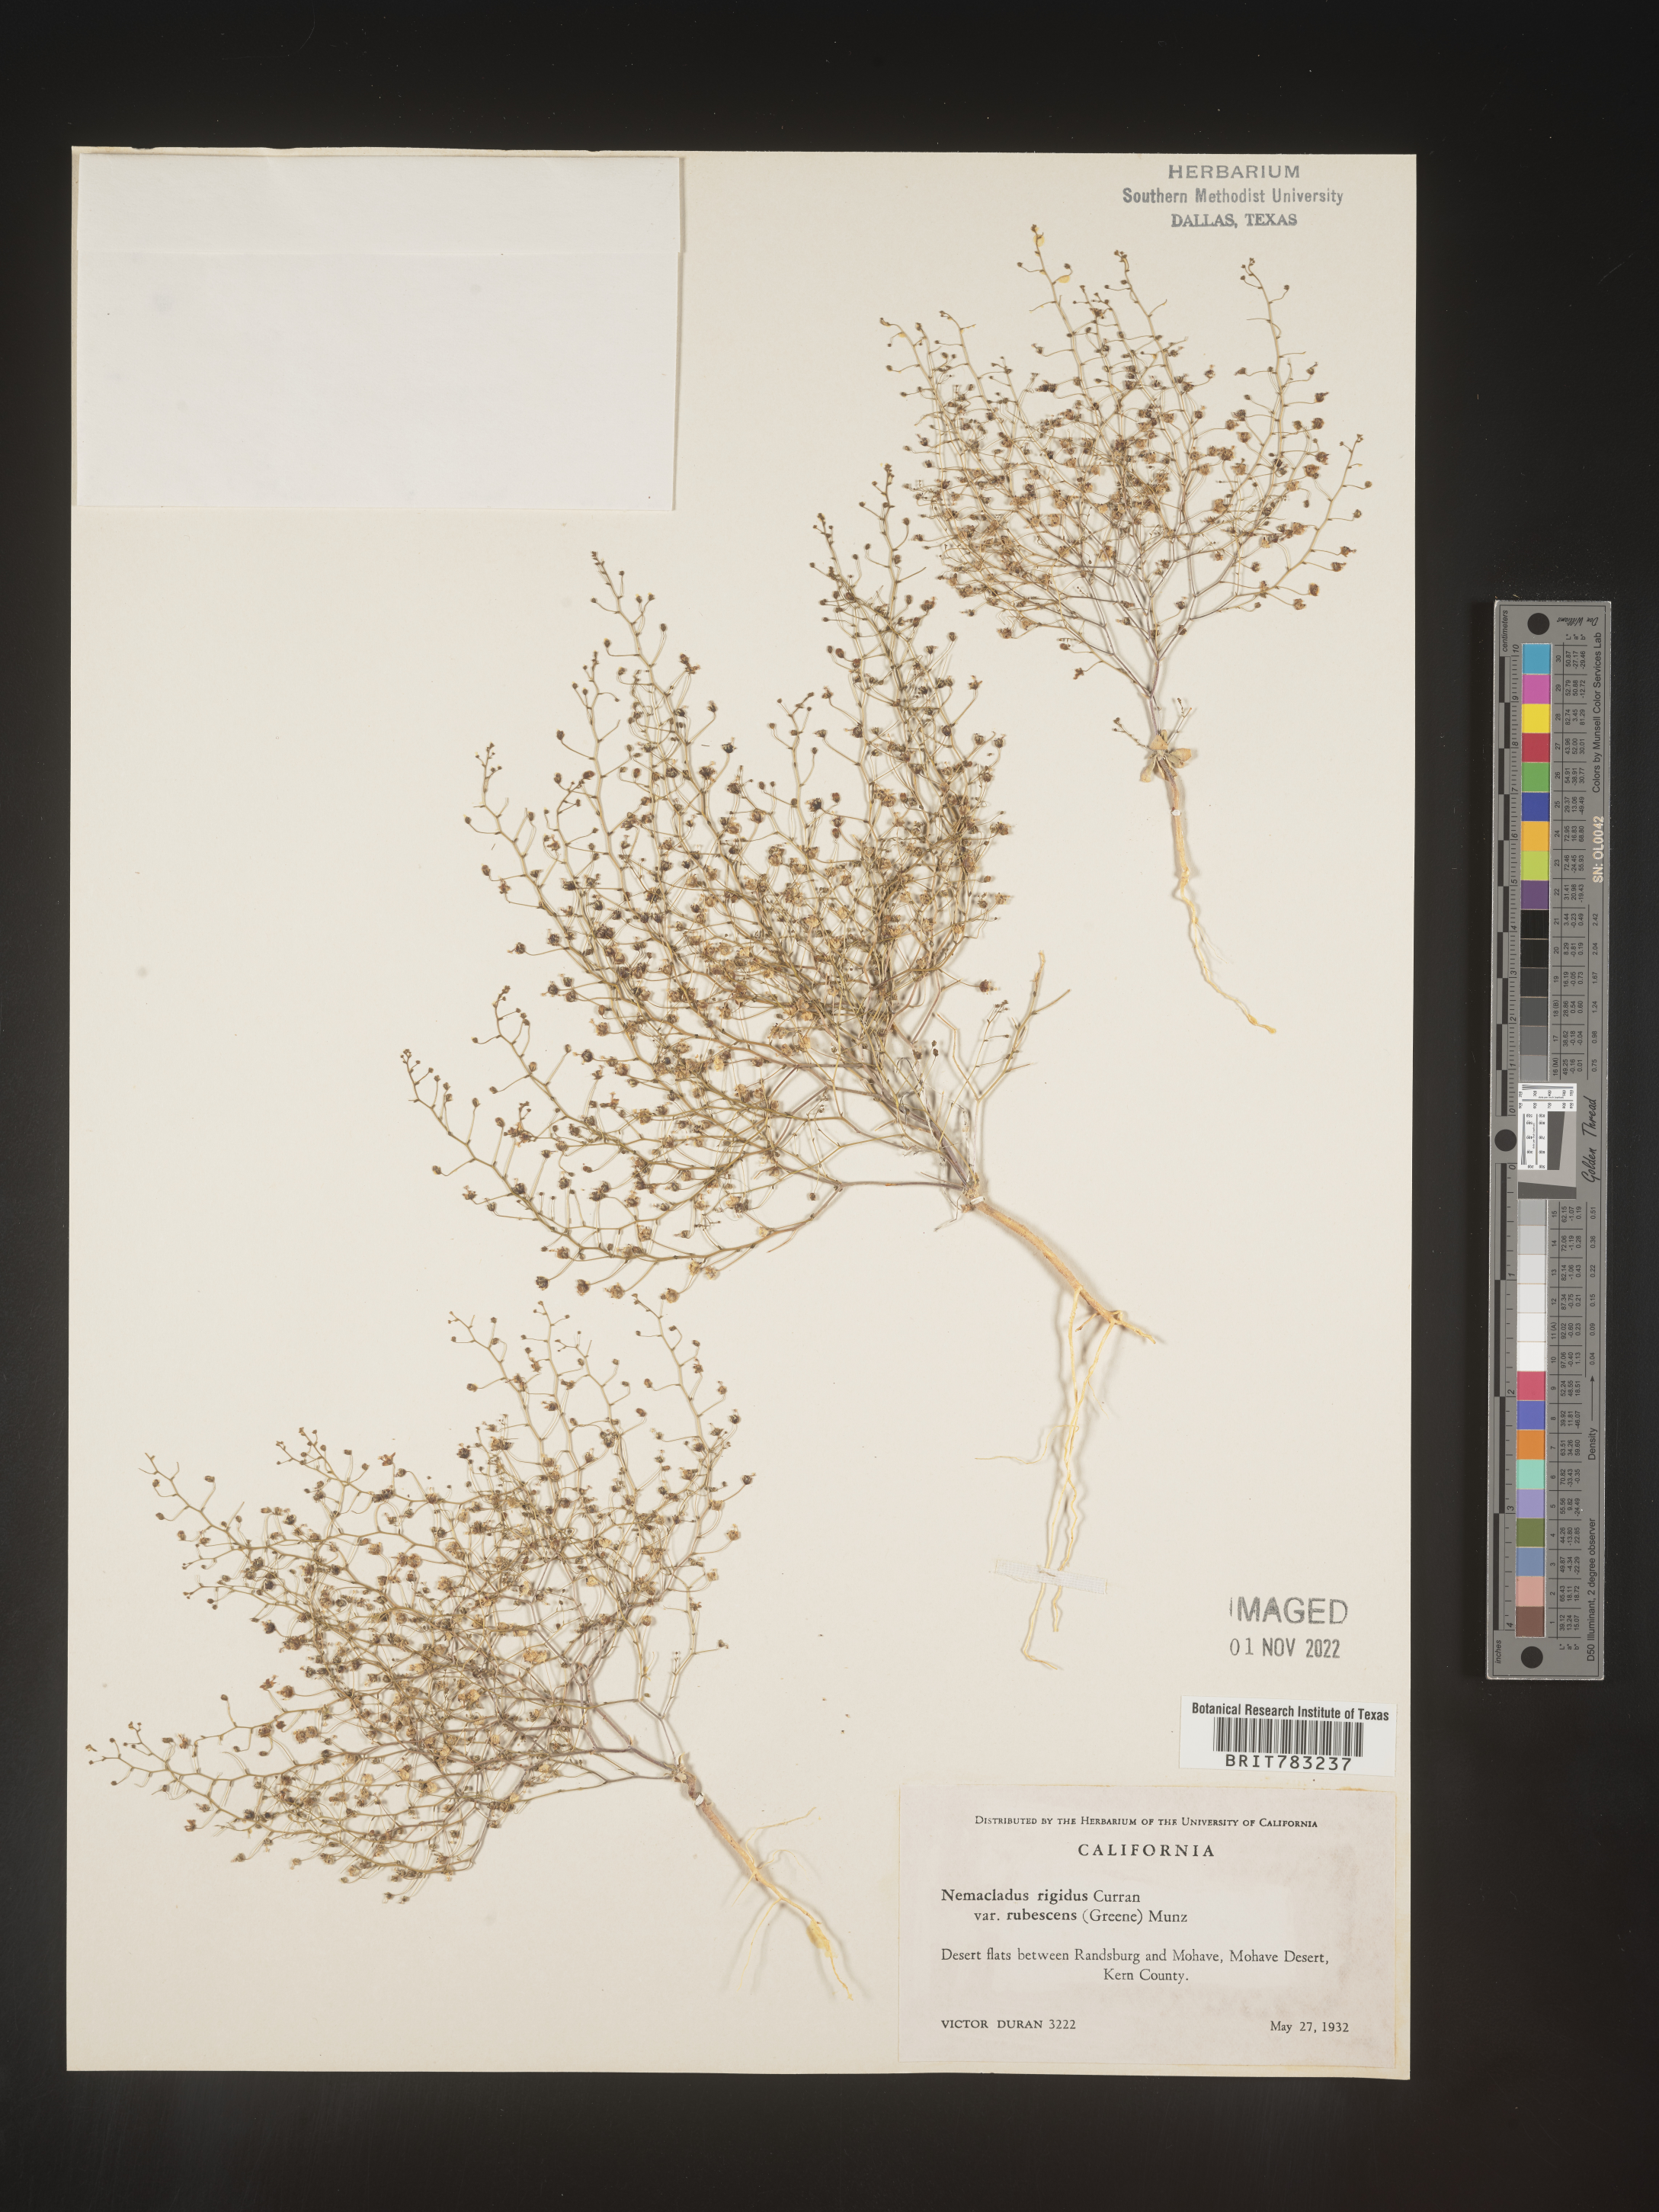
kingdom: Plantae
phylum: Tracheophyta
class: Magnoliopsida
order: Asterales
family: Campanulaceae
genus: Nemacladus
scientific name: Nemacladus
